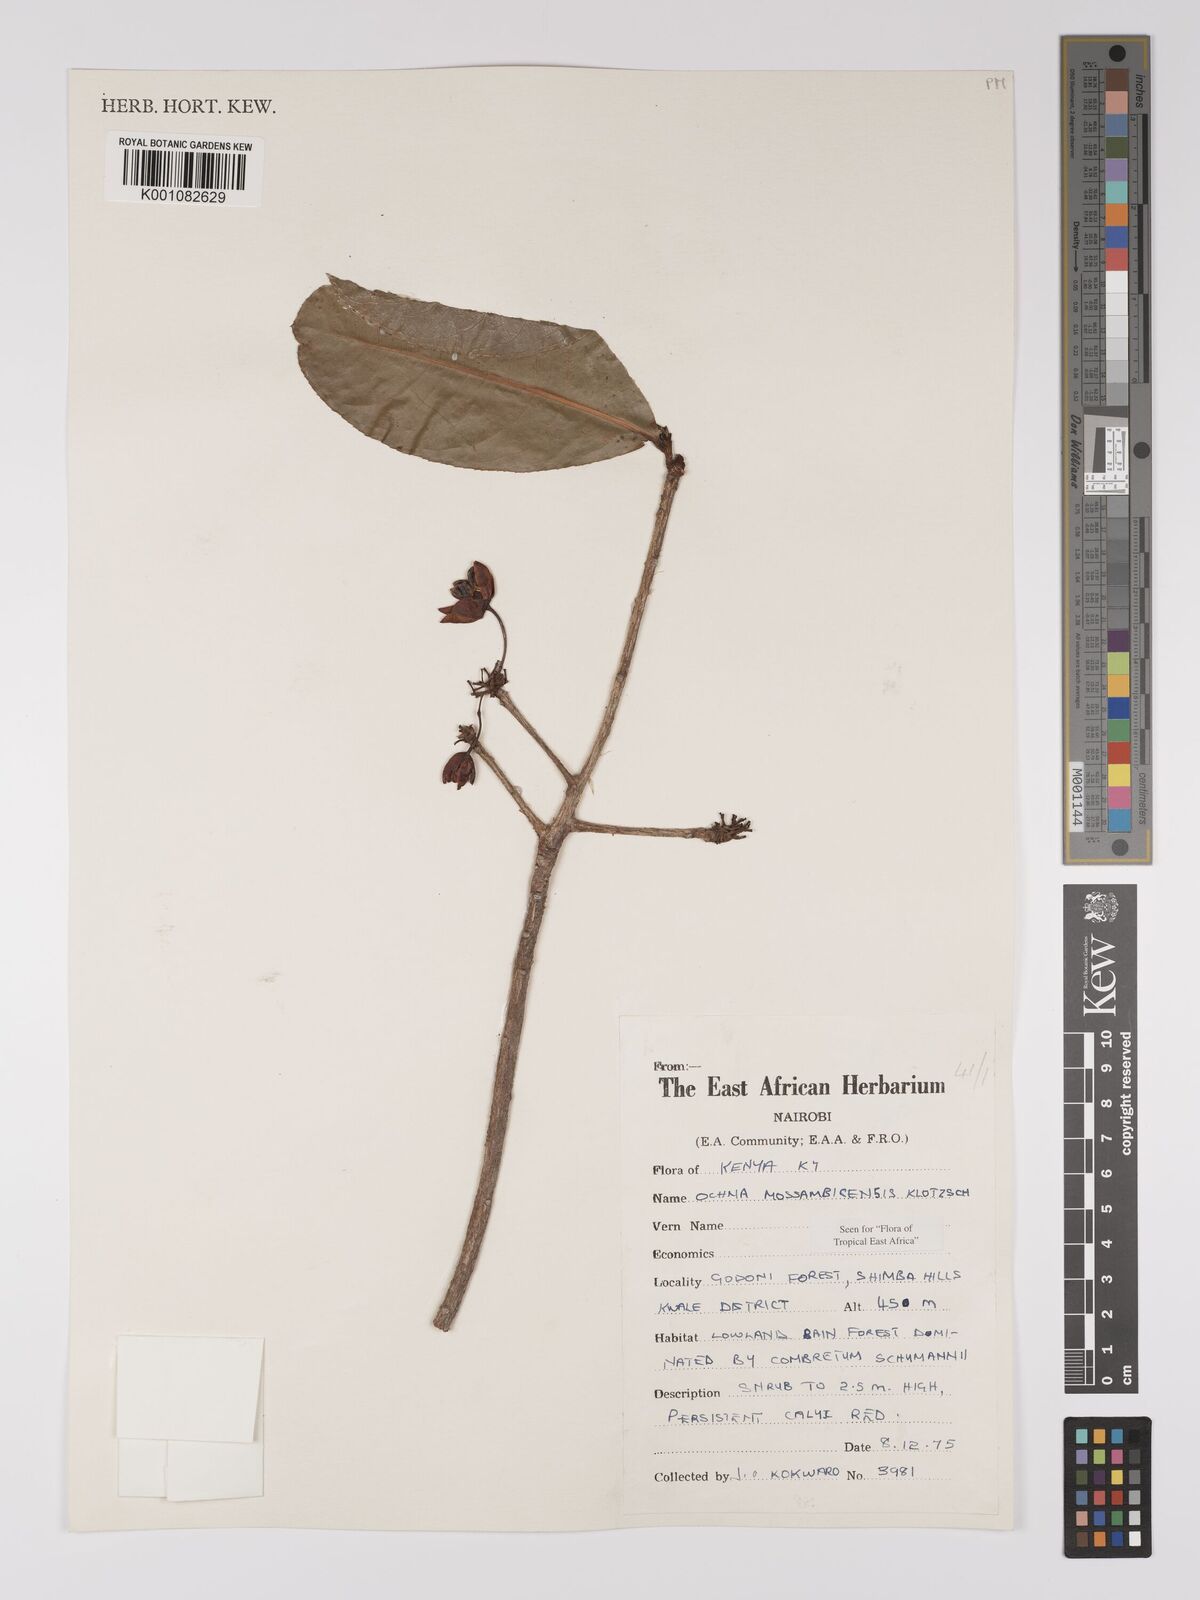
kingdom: Plantae
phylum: Tracheophyta
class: Magnoliopsida
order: Malpighiales
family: Ochnaceae
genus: Ochna
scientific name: Ochna atropurpurea
